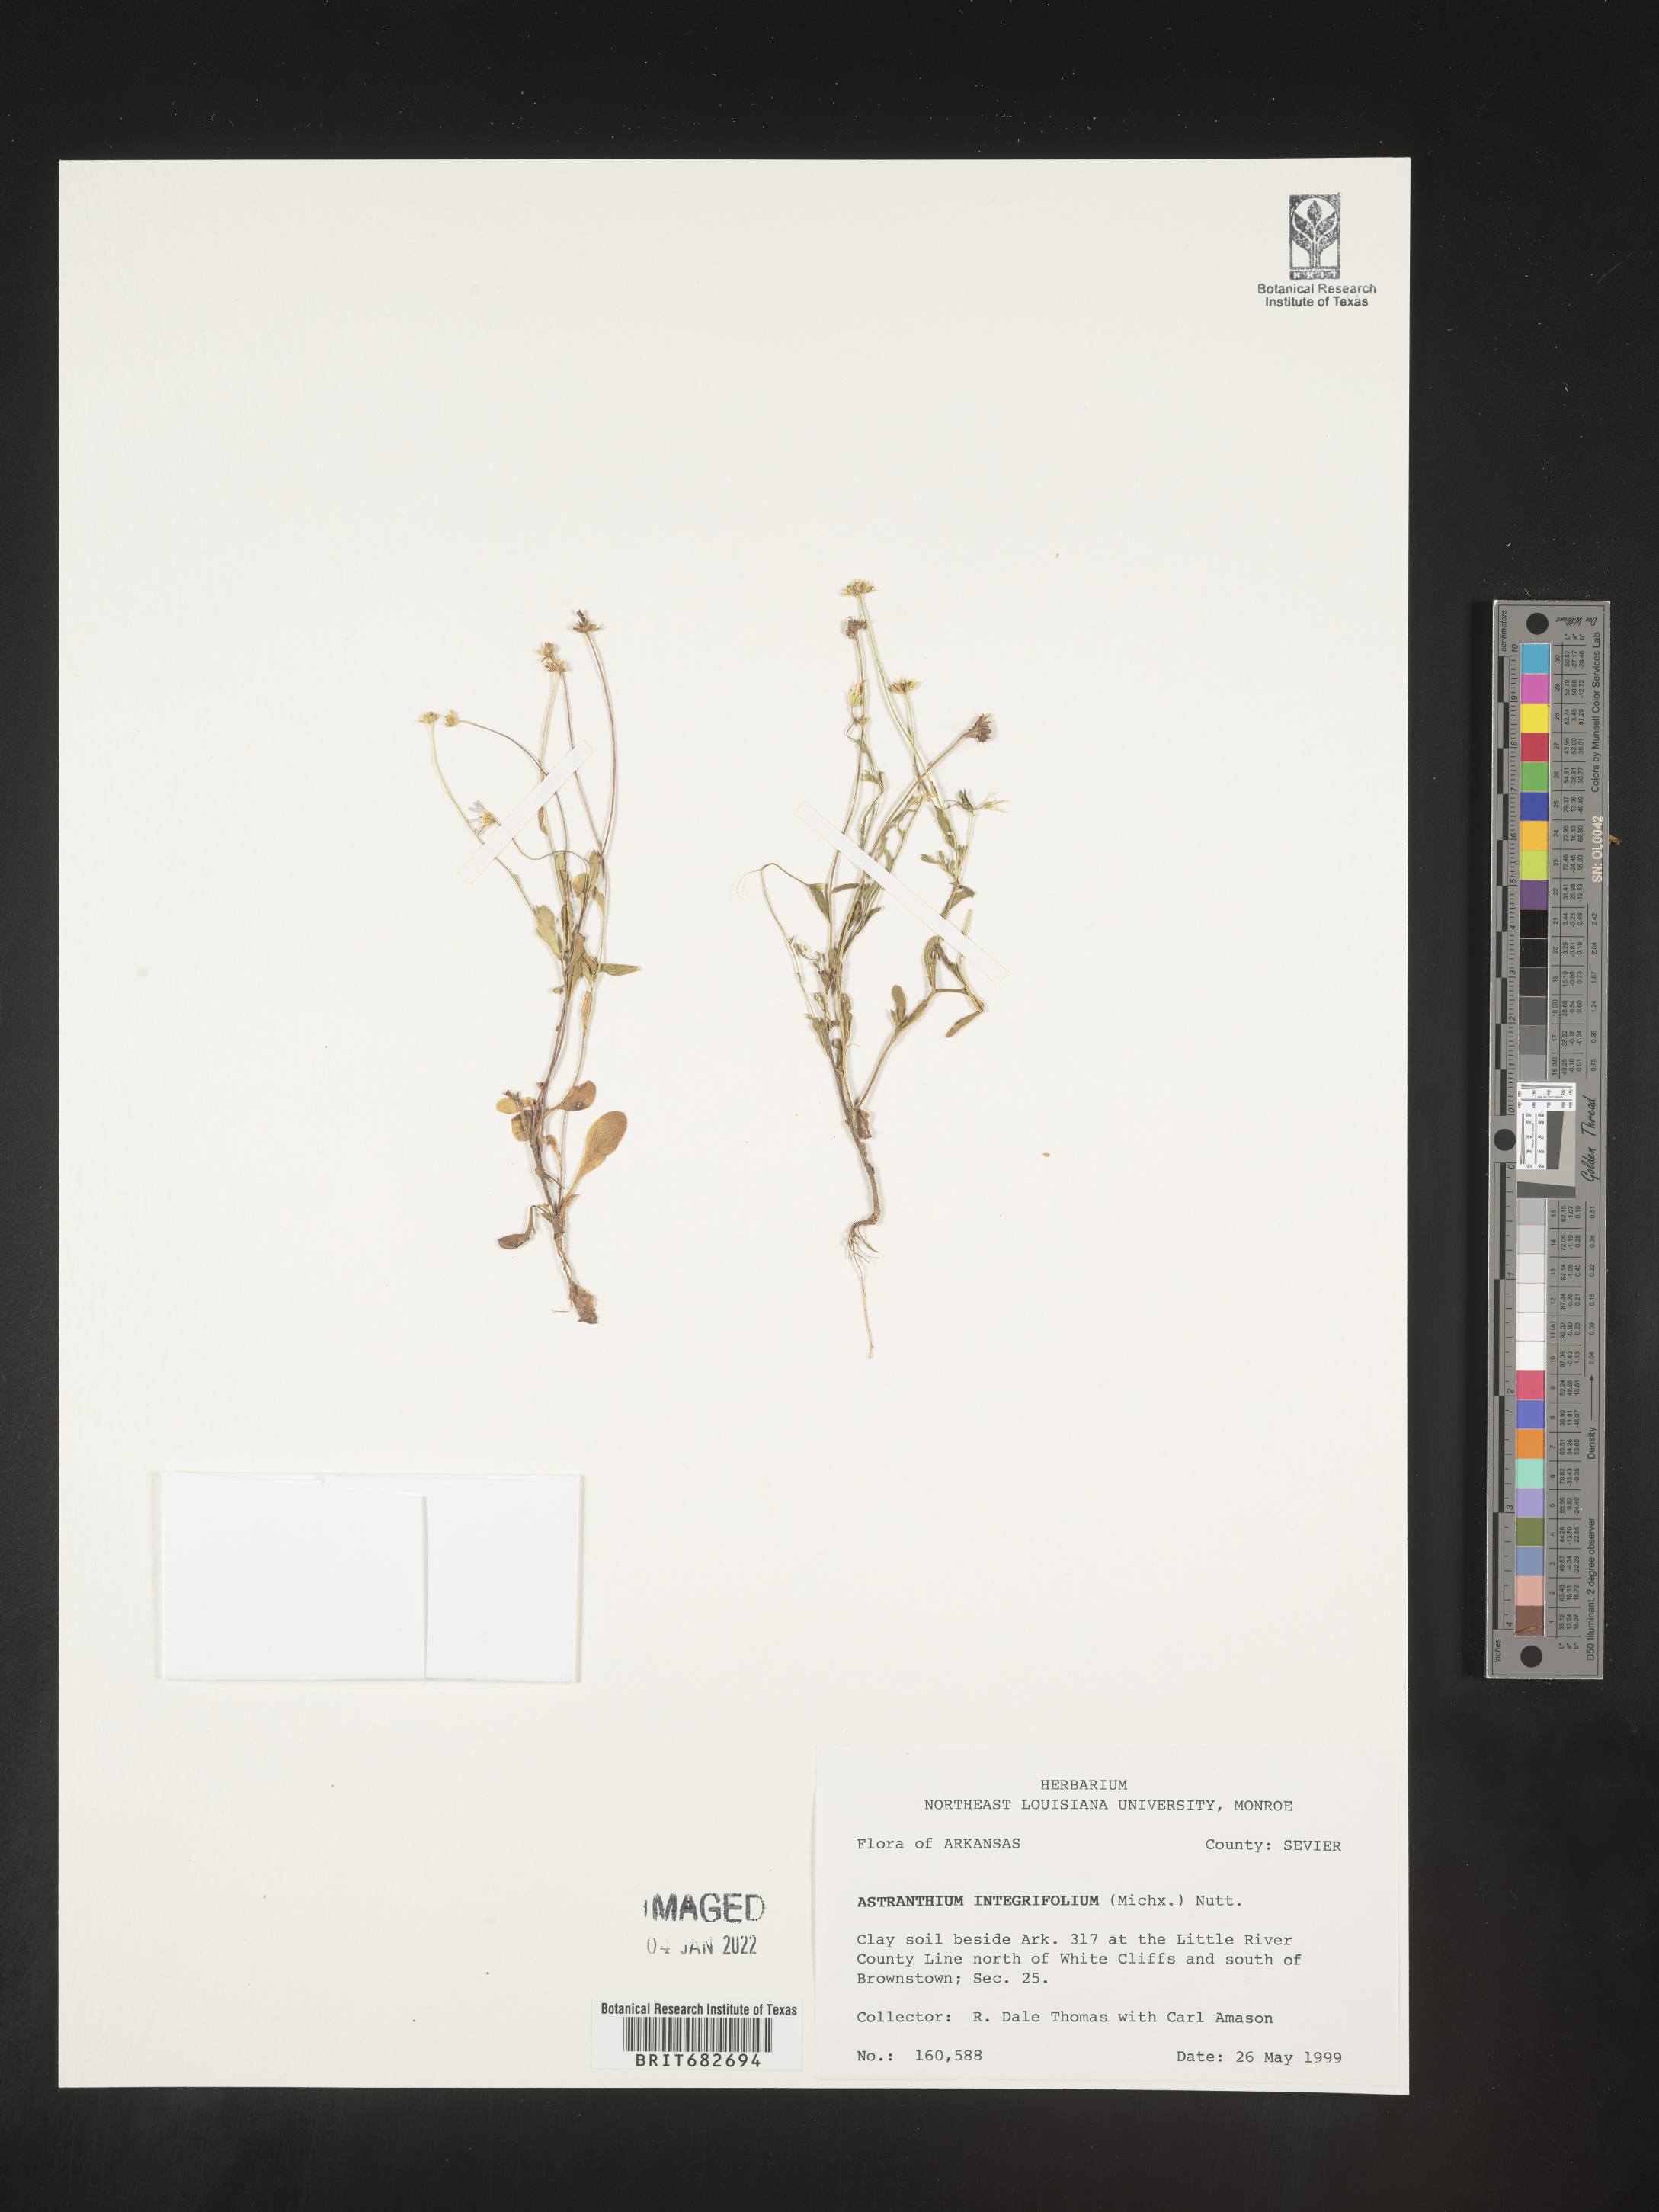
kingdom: Plantae
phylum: Tracheophyta
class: Magnoliopsida
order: Asterales
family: Asteraceae
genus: Astranthium
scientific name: Astranthium ciliatum
